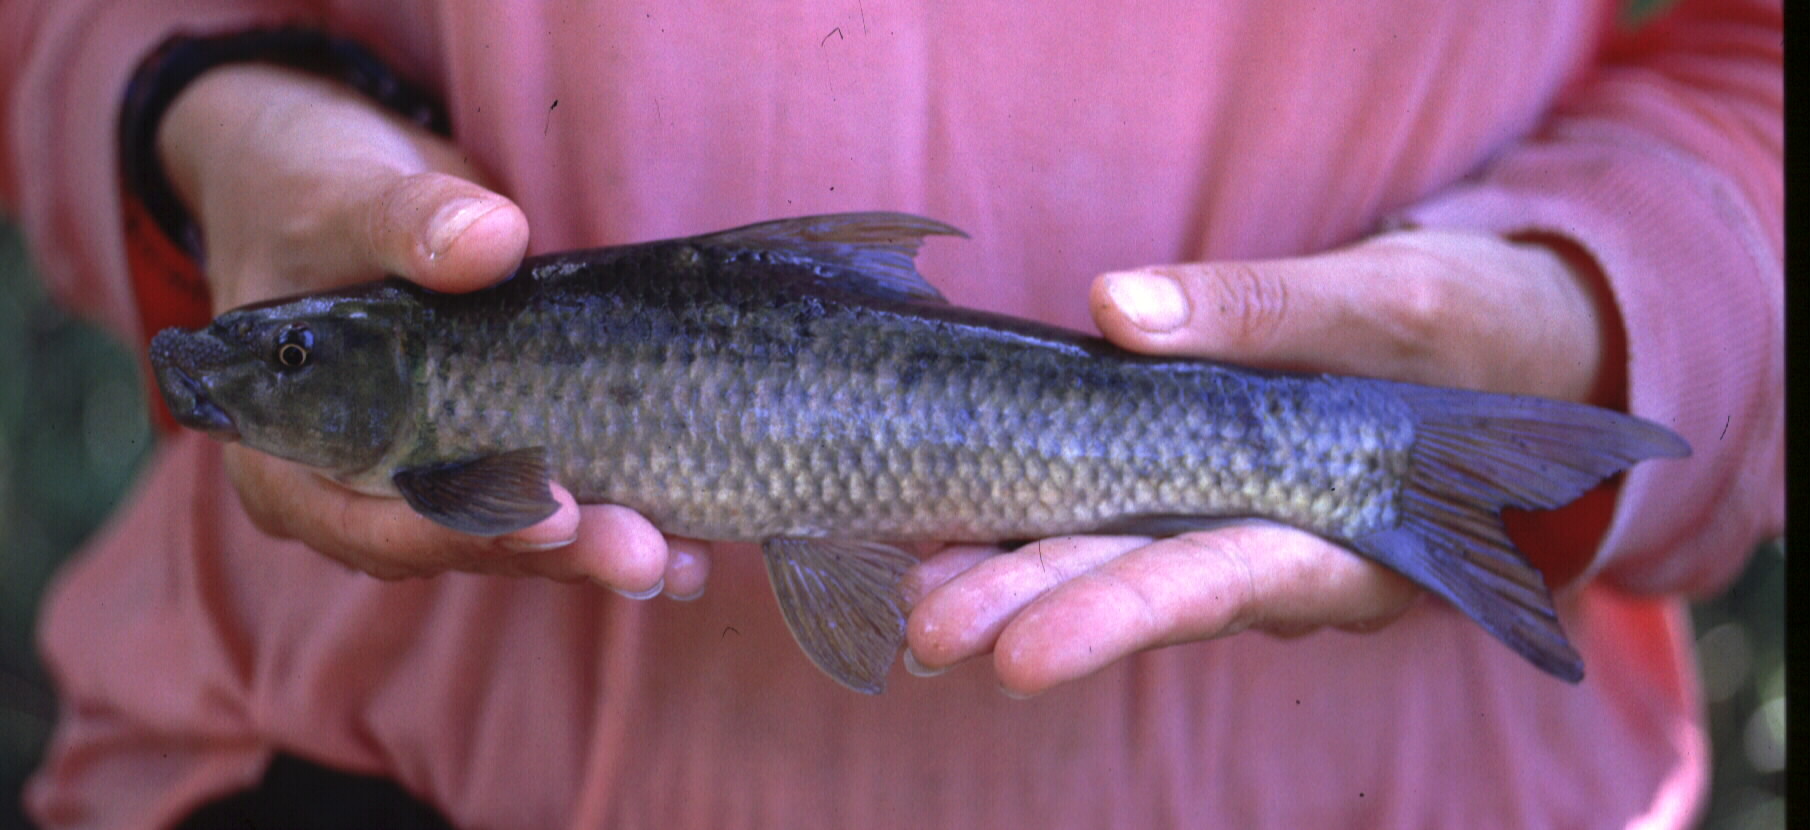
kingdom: Animalia
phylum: Chordata
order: Cypriniformes
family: Cyprinidae
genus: Labeo
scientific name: Labeo molybdinus
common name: Leaden labeo
